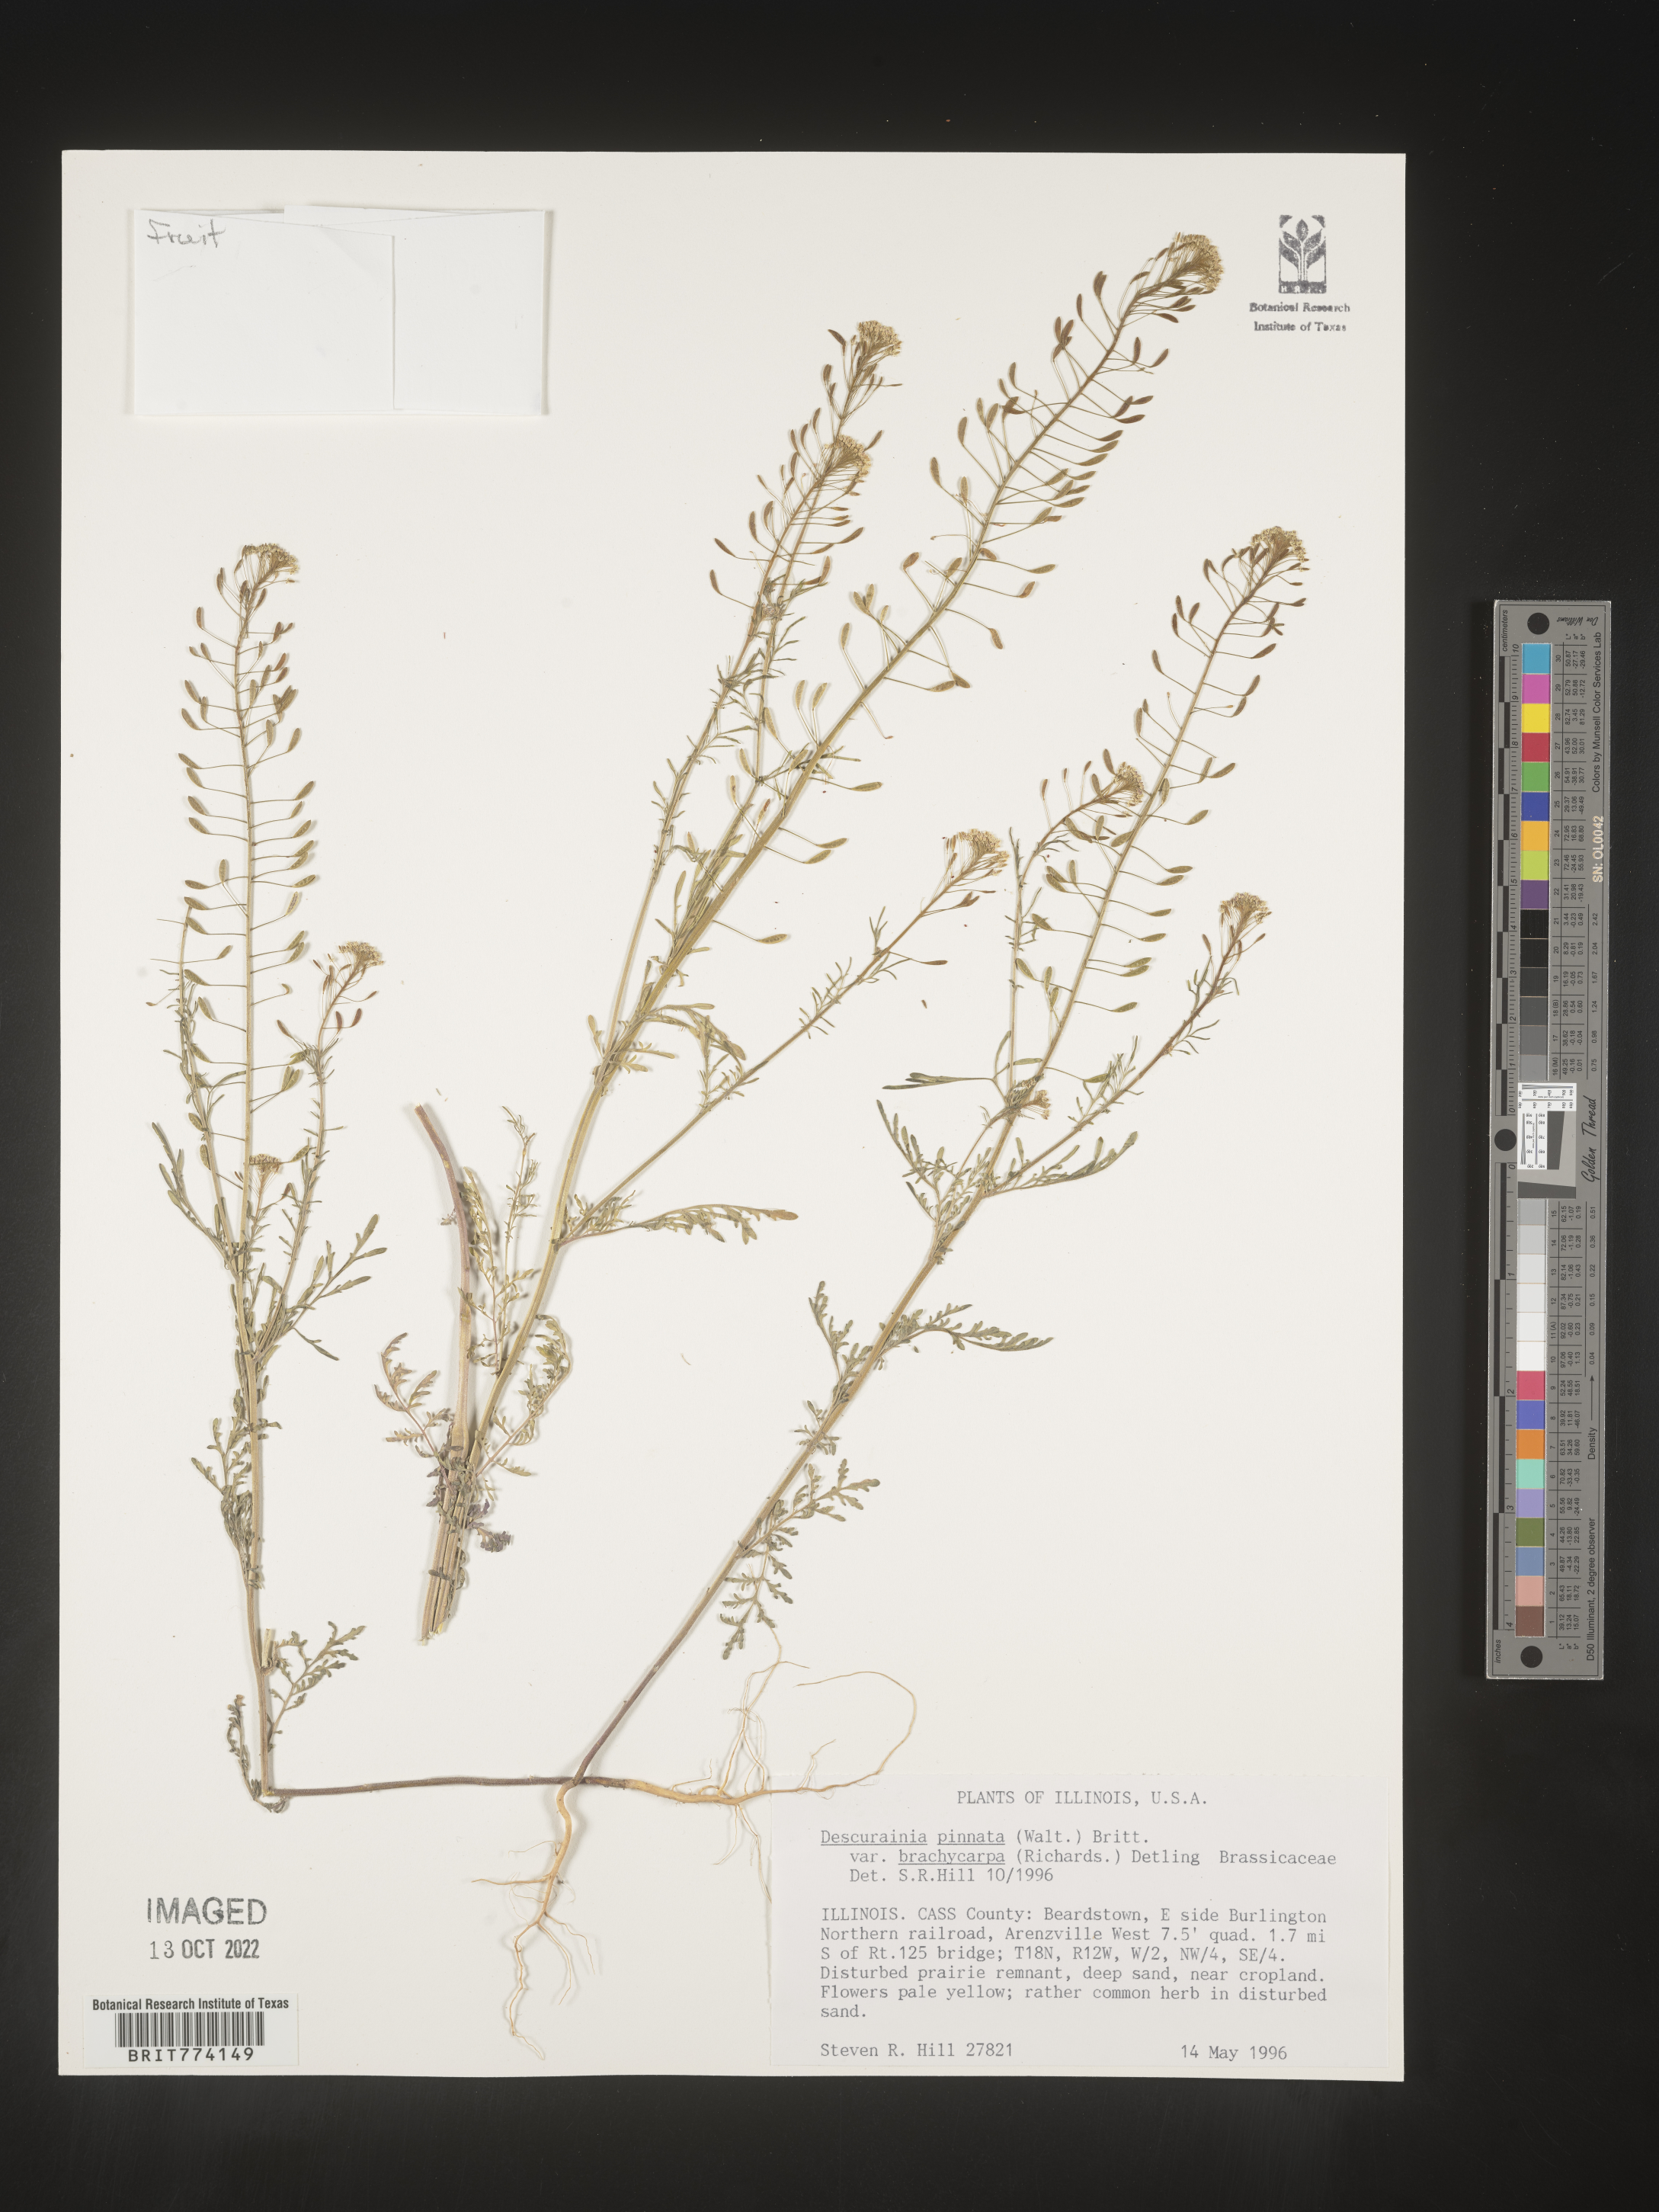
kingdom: Plantae
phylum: Tracheophyta
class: Magnoliopsida
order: Brassicales
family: Brassicaceae
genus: Descurainia
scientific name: Descurainia pinnata
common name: Western tansy mustard
